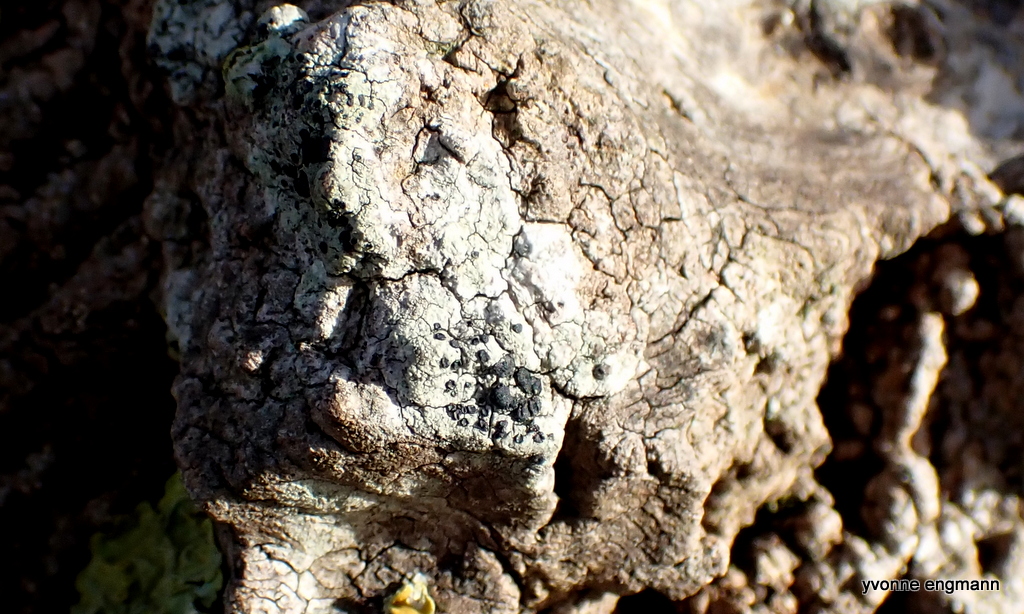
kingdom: Fungi
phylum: Ascomycota
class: Lecanoromycetes
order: Lecanorales
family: Lecanoraceae
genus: Lecidella
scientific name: Lecidella elaeochroma
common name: grågrøn skivelav
